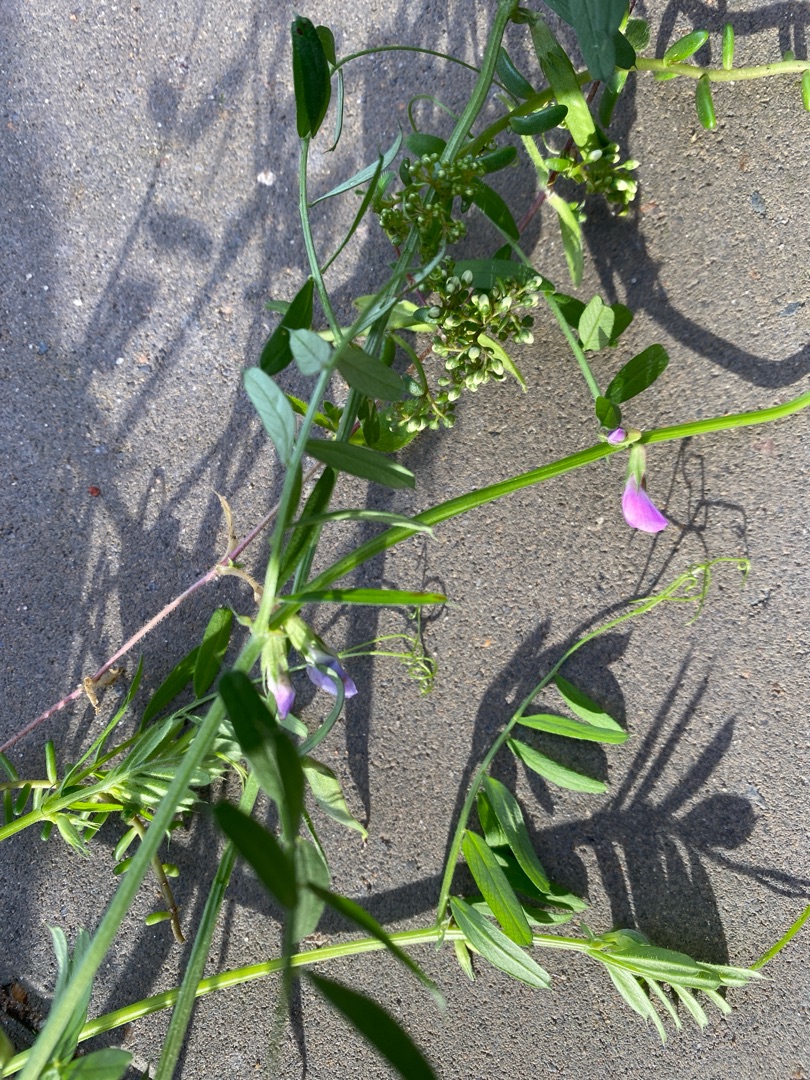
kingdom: Plantae
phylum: Tracheophyta
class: Magnoliopsida
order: Fabales
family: Fabaceae
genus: Vicia
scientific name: Vicia sativa
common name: Foder-vikke
